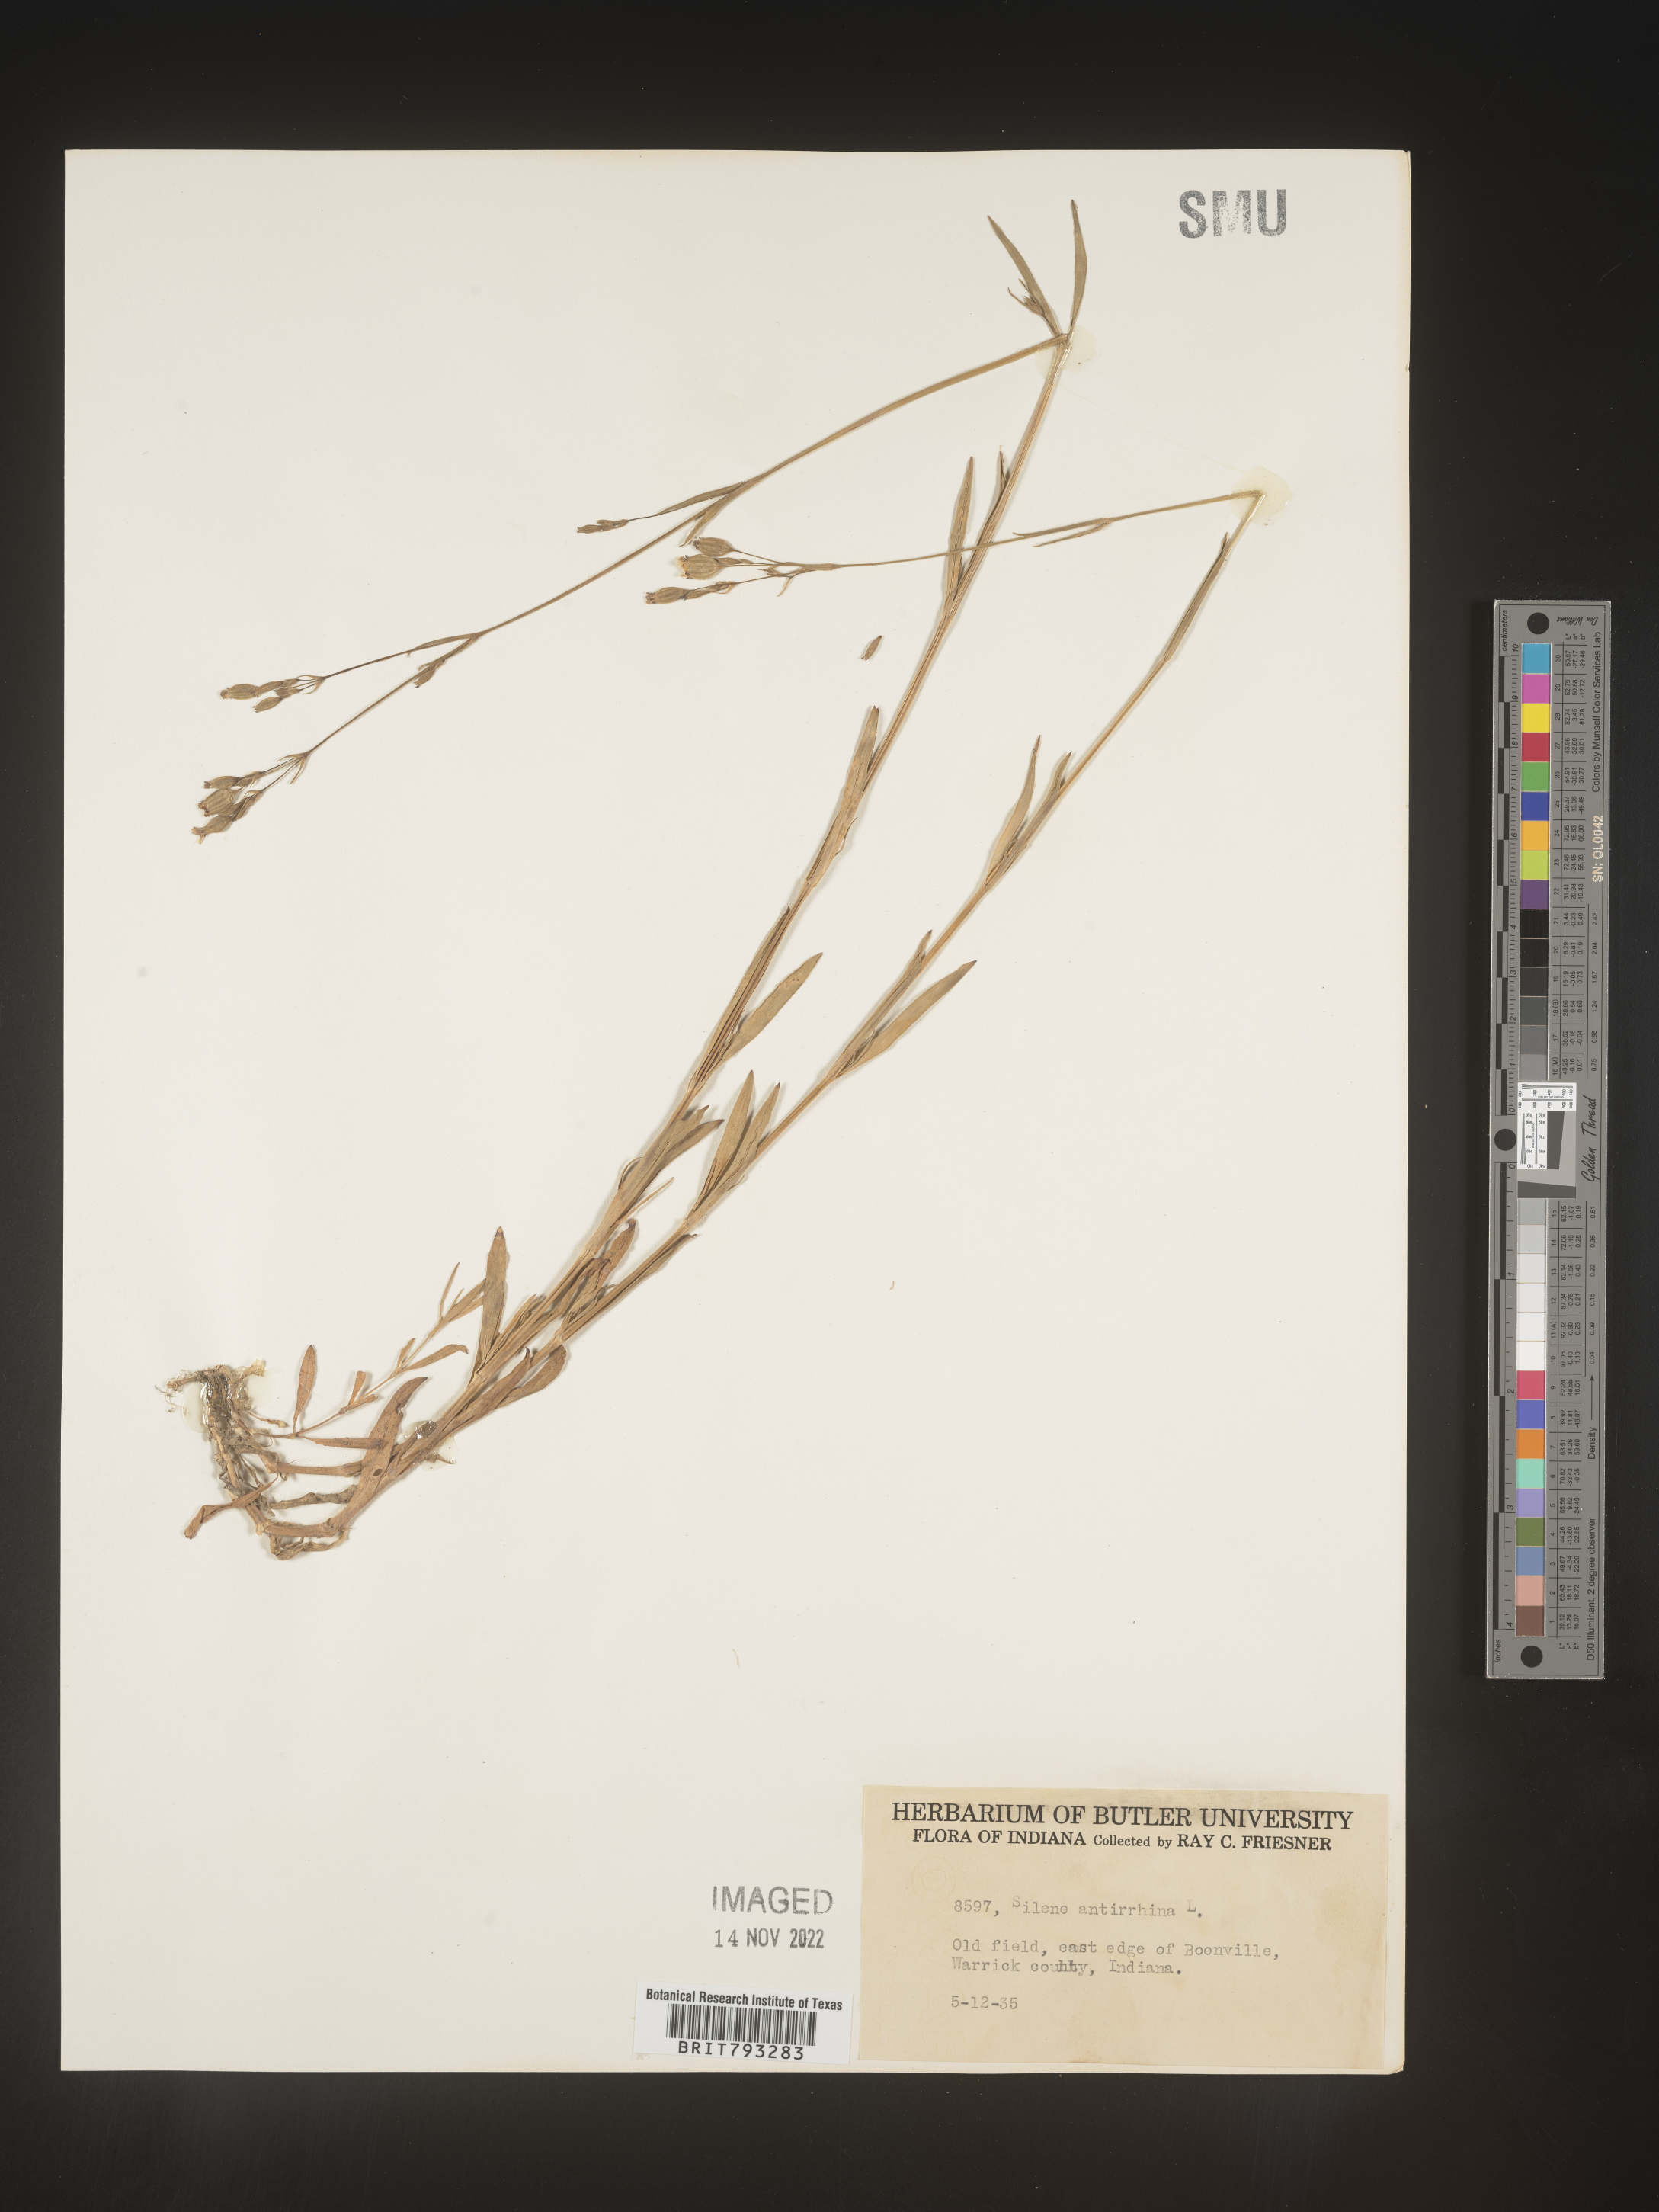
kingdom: Plantae
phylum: Tracheophyta
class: Magnoliopsida
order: Caryophyllales
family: Caryophyllaceae
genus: Silene
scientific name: Silene antirrhina
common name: Sleepy catchfly
